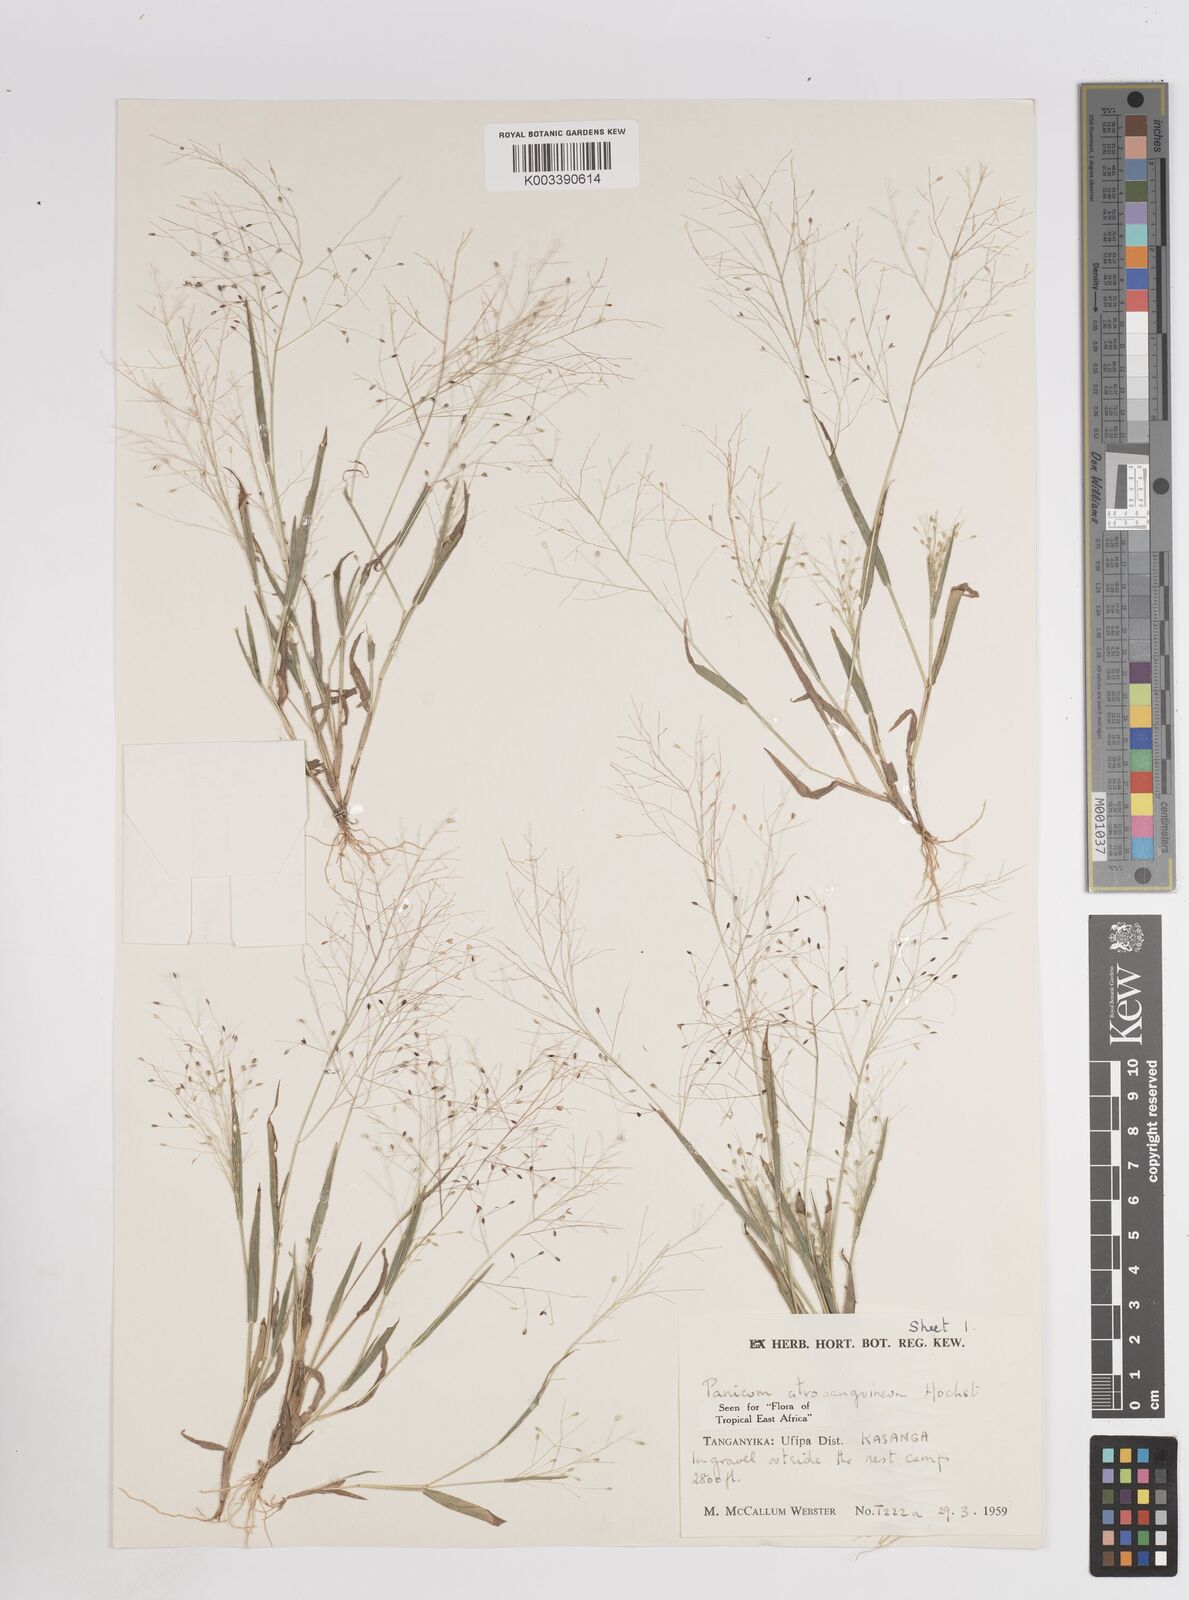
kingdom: Plantae
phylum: Tracheophyta
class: Liliopsida
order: Poales
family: Poaceae
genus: Panicum
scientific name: Panicum atrosanguineum
